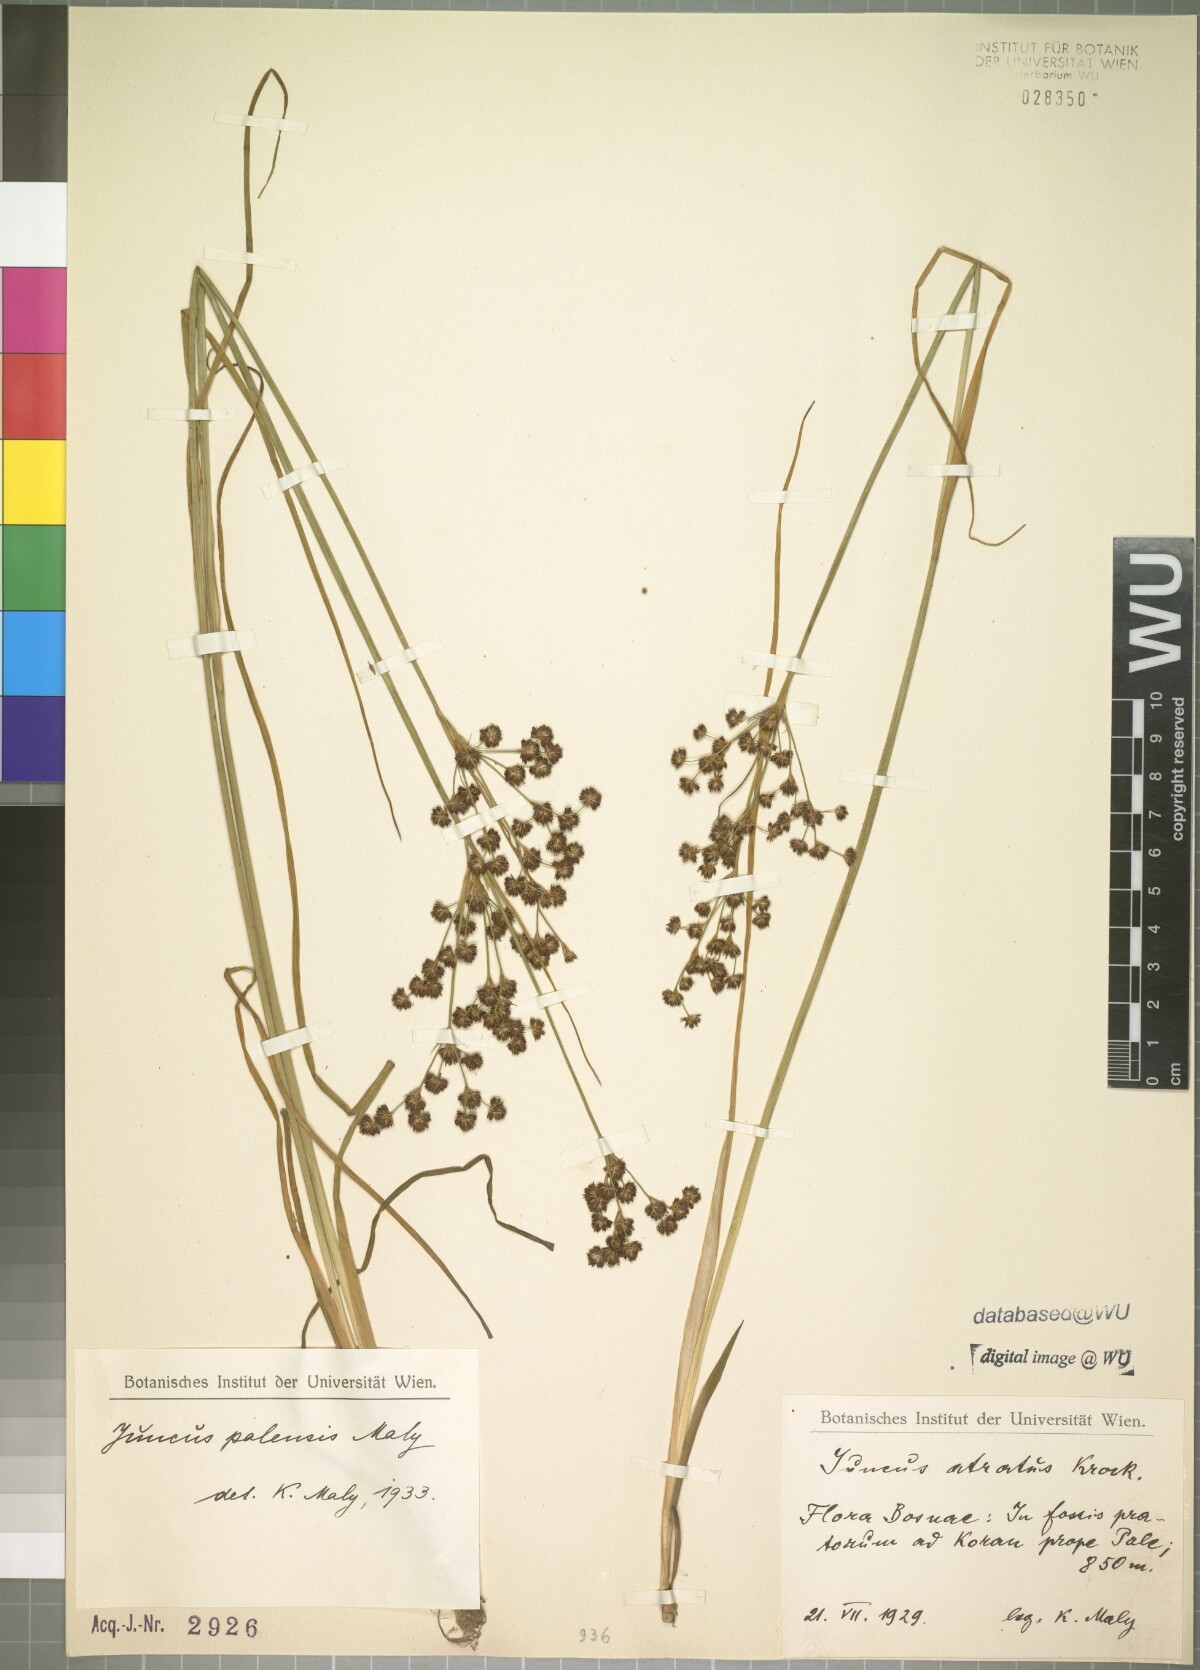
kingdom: Plantae
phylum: Tracheophyta
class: Liliopsida
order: Poales
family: Juncaceae
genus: Juncus
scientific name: Juncus thomasii
